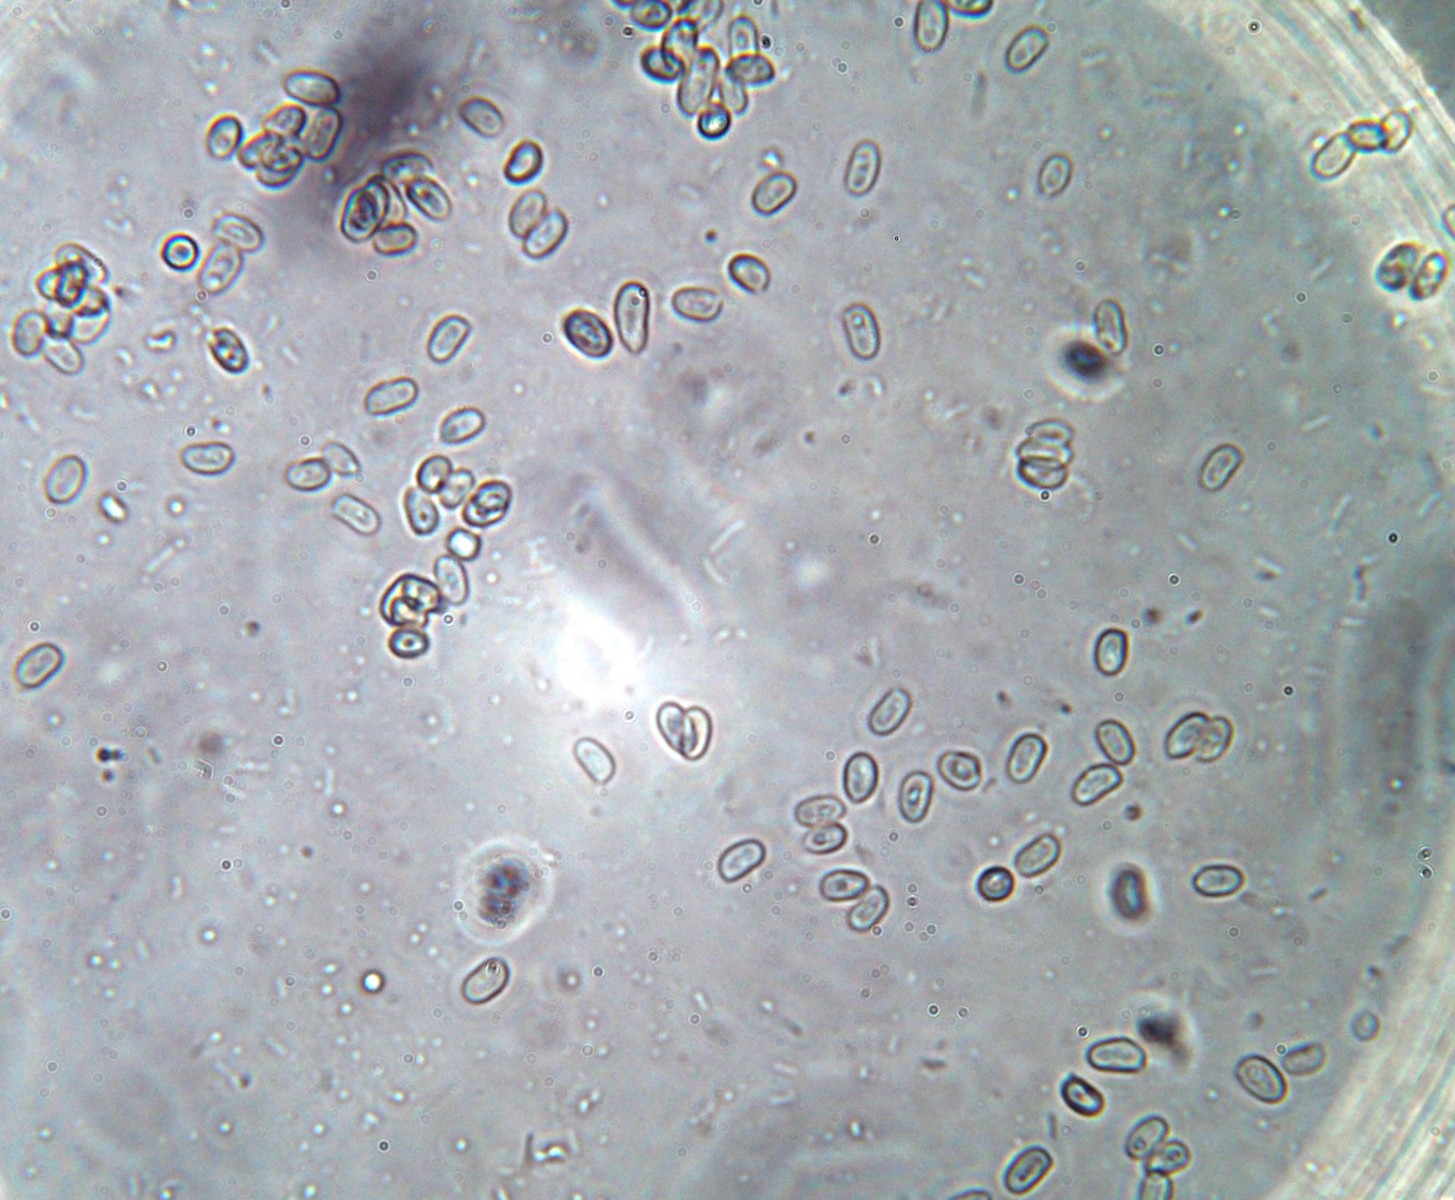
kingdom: Fungi
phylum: Basidiomycota
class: Agaricomycetes
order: Agaricales
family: Agaricaceae
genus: Echinoderma
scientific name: Echinoderma calcicola
